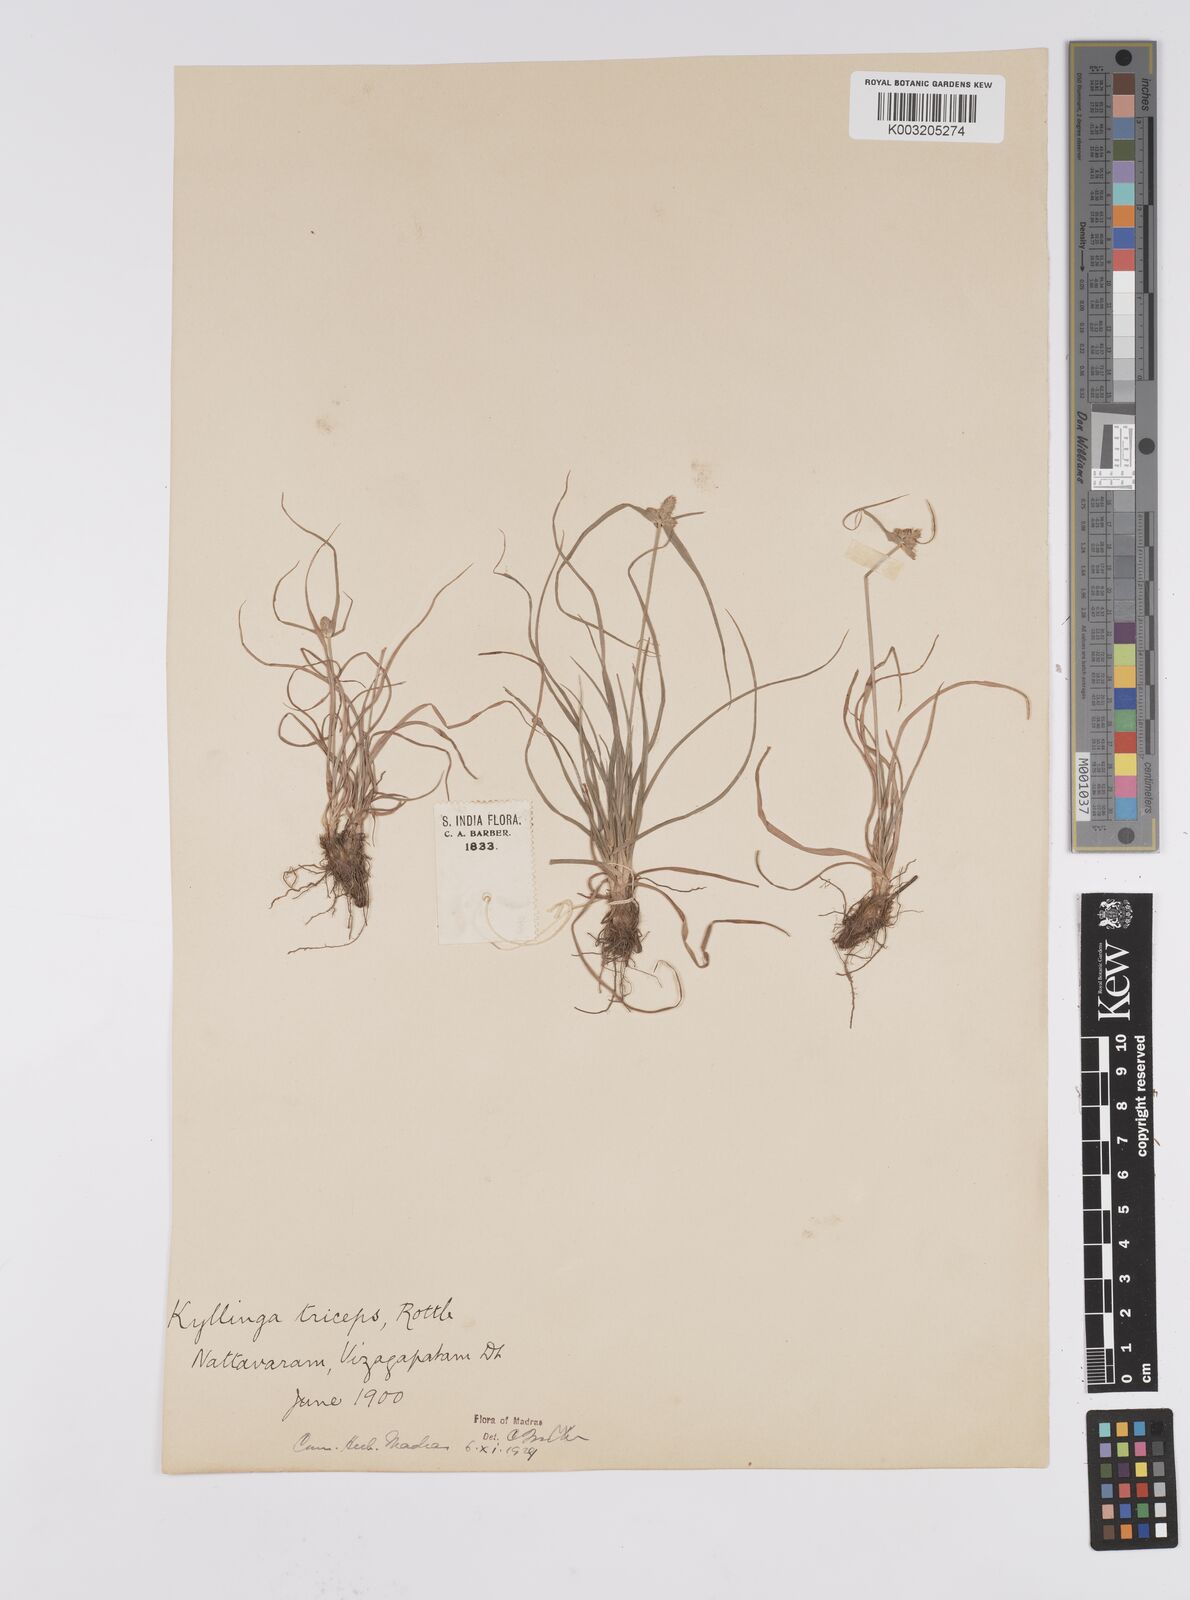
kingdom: Plantae
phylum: Tracheophyta
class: Liliopsida
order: Poales
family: Cyperaceae
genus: Cyperus
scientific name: Cyperus
